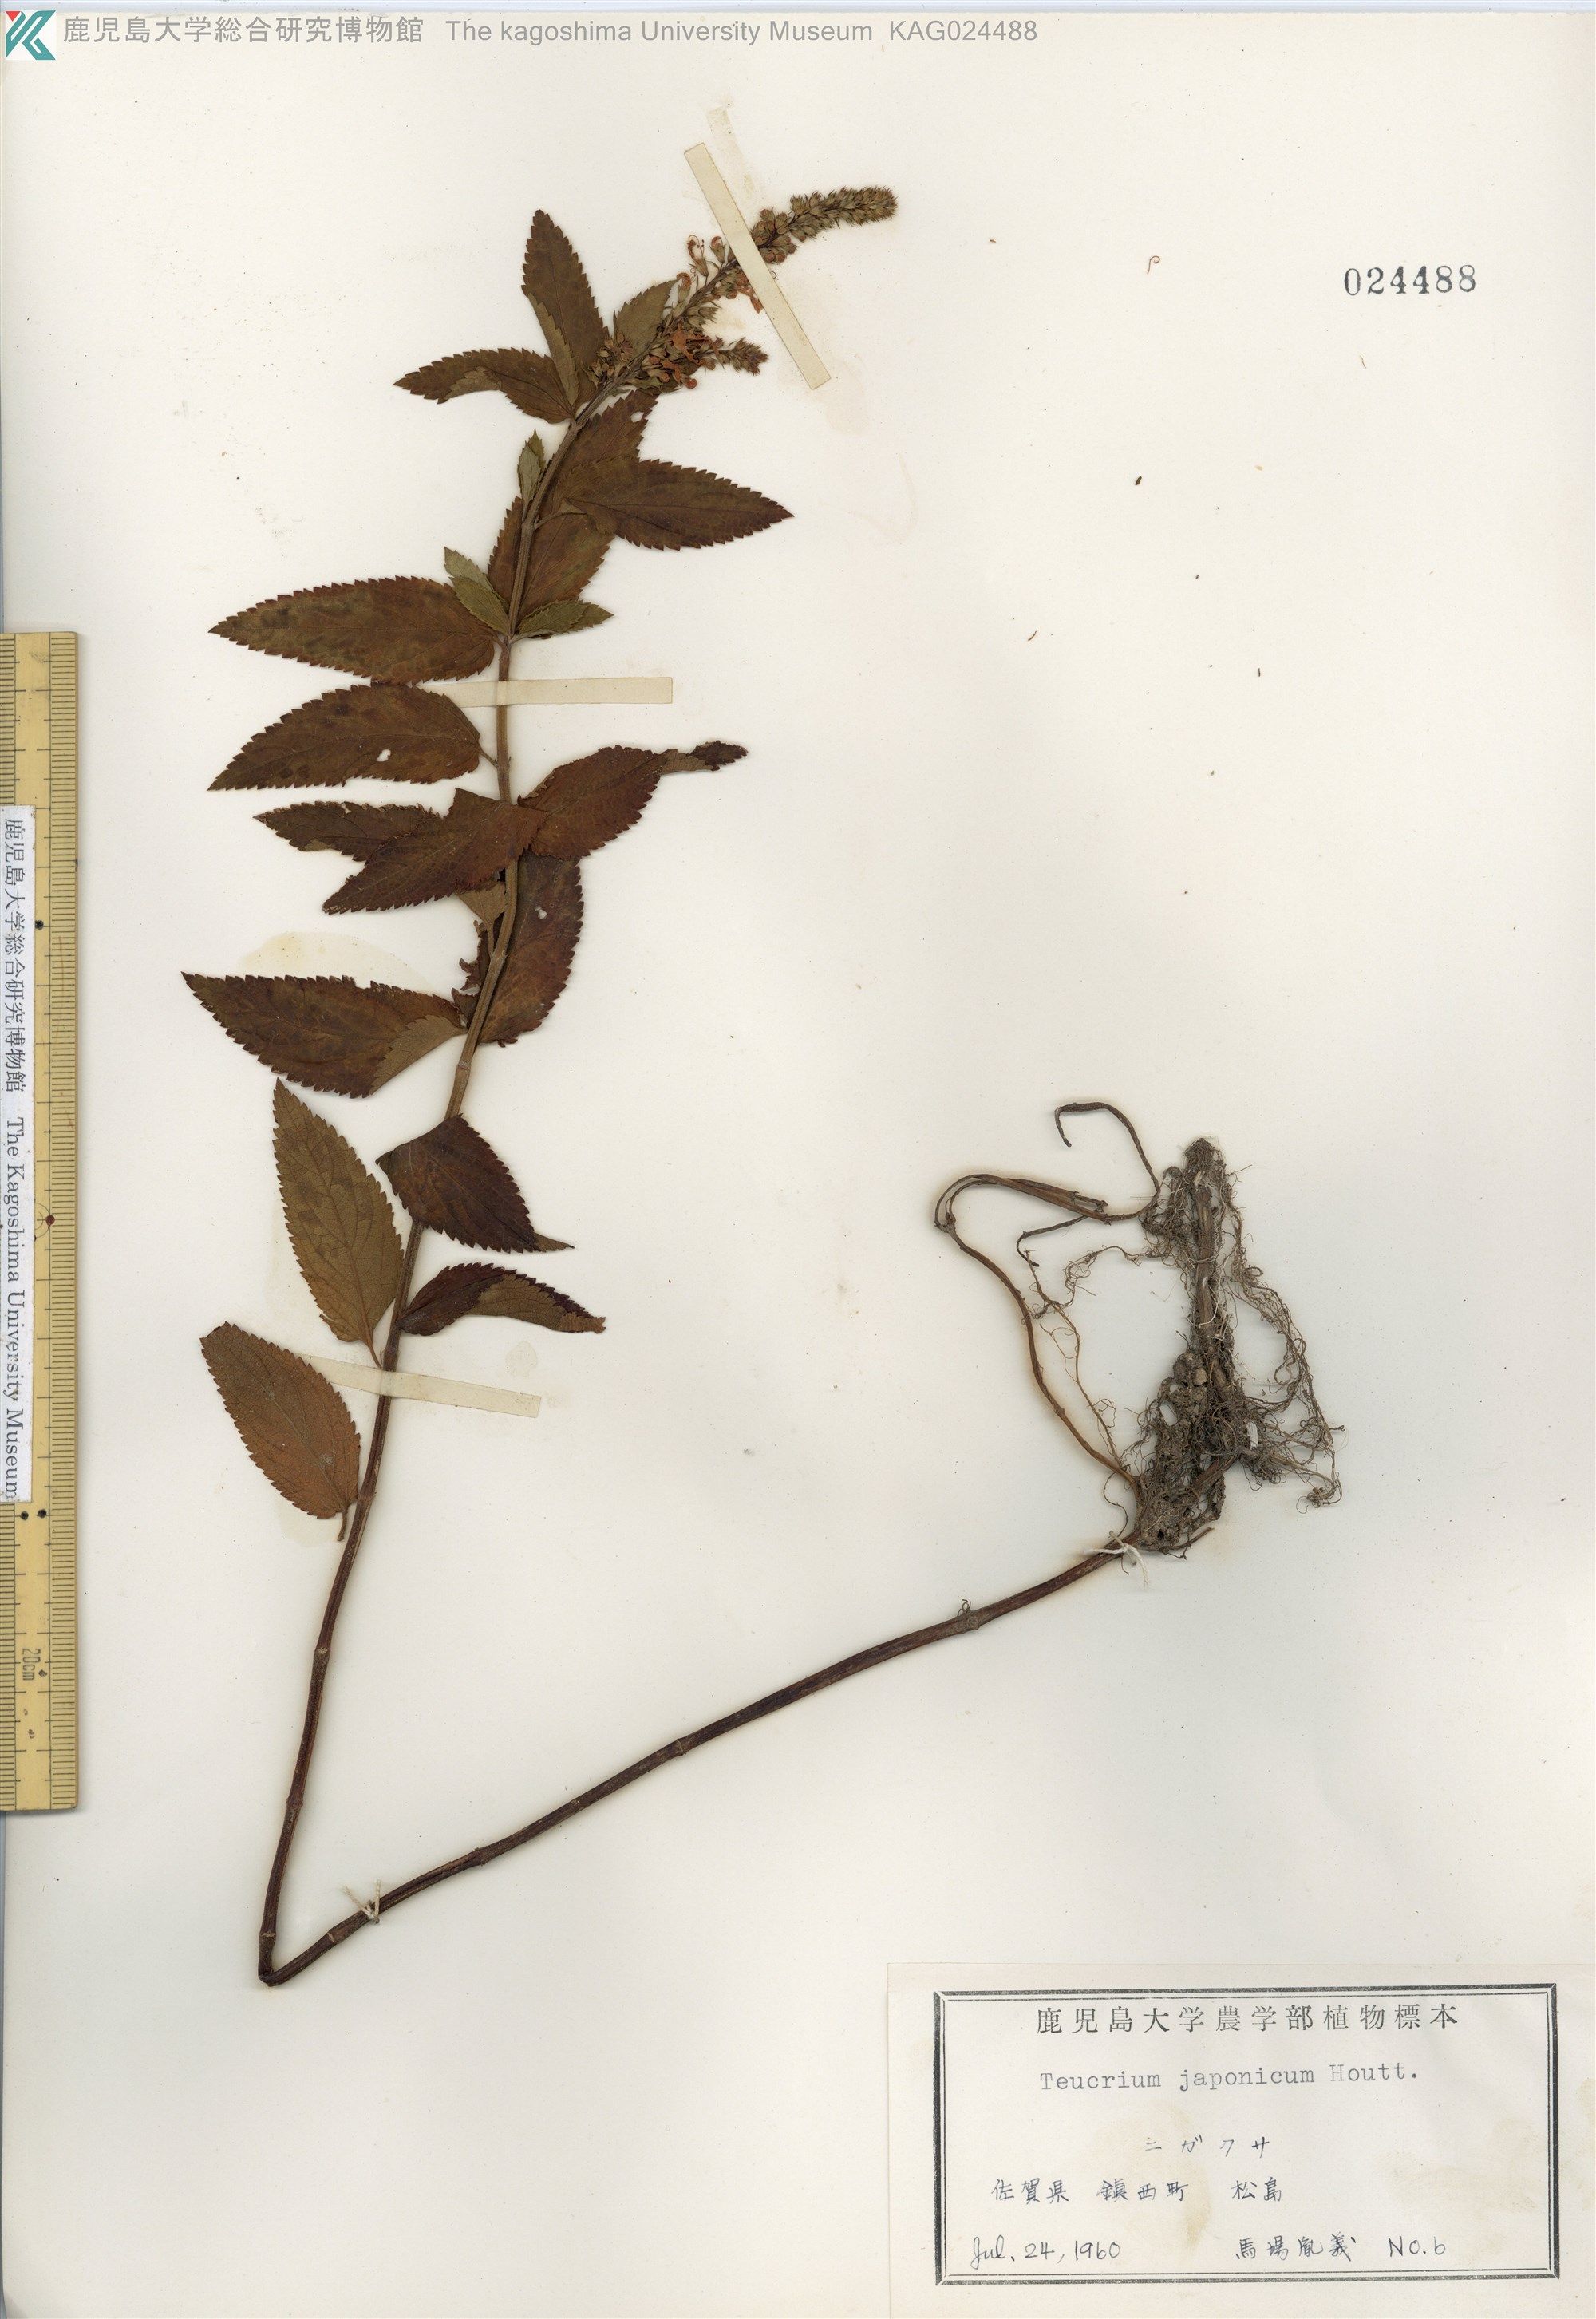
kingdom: Plantae
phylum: Tracheophyta
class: Magnoliopsida
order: Lamiales
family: Lamiaceae
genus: Teucrium
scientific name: Teucrium japonicum
